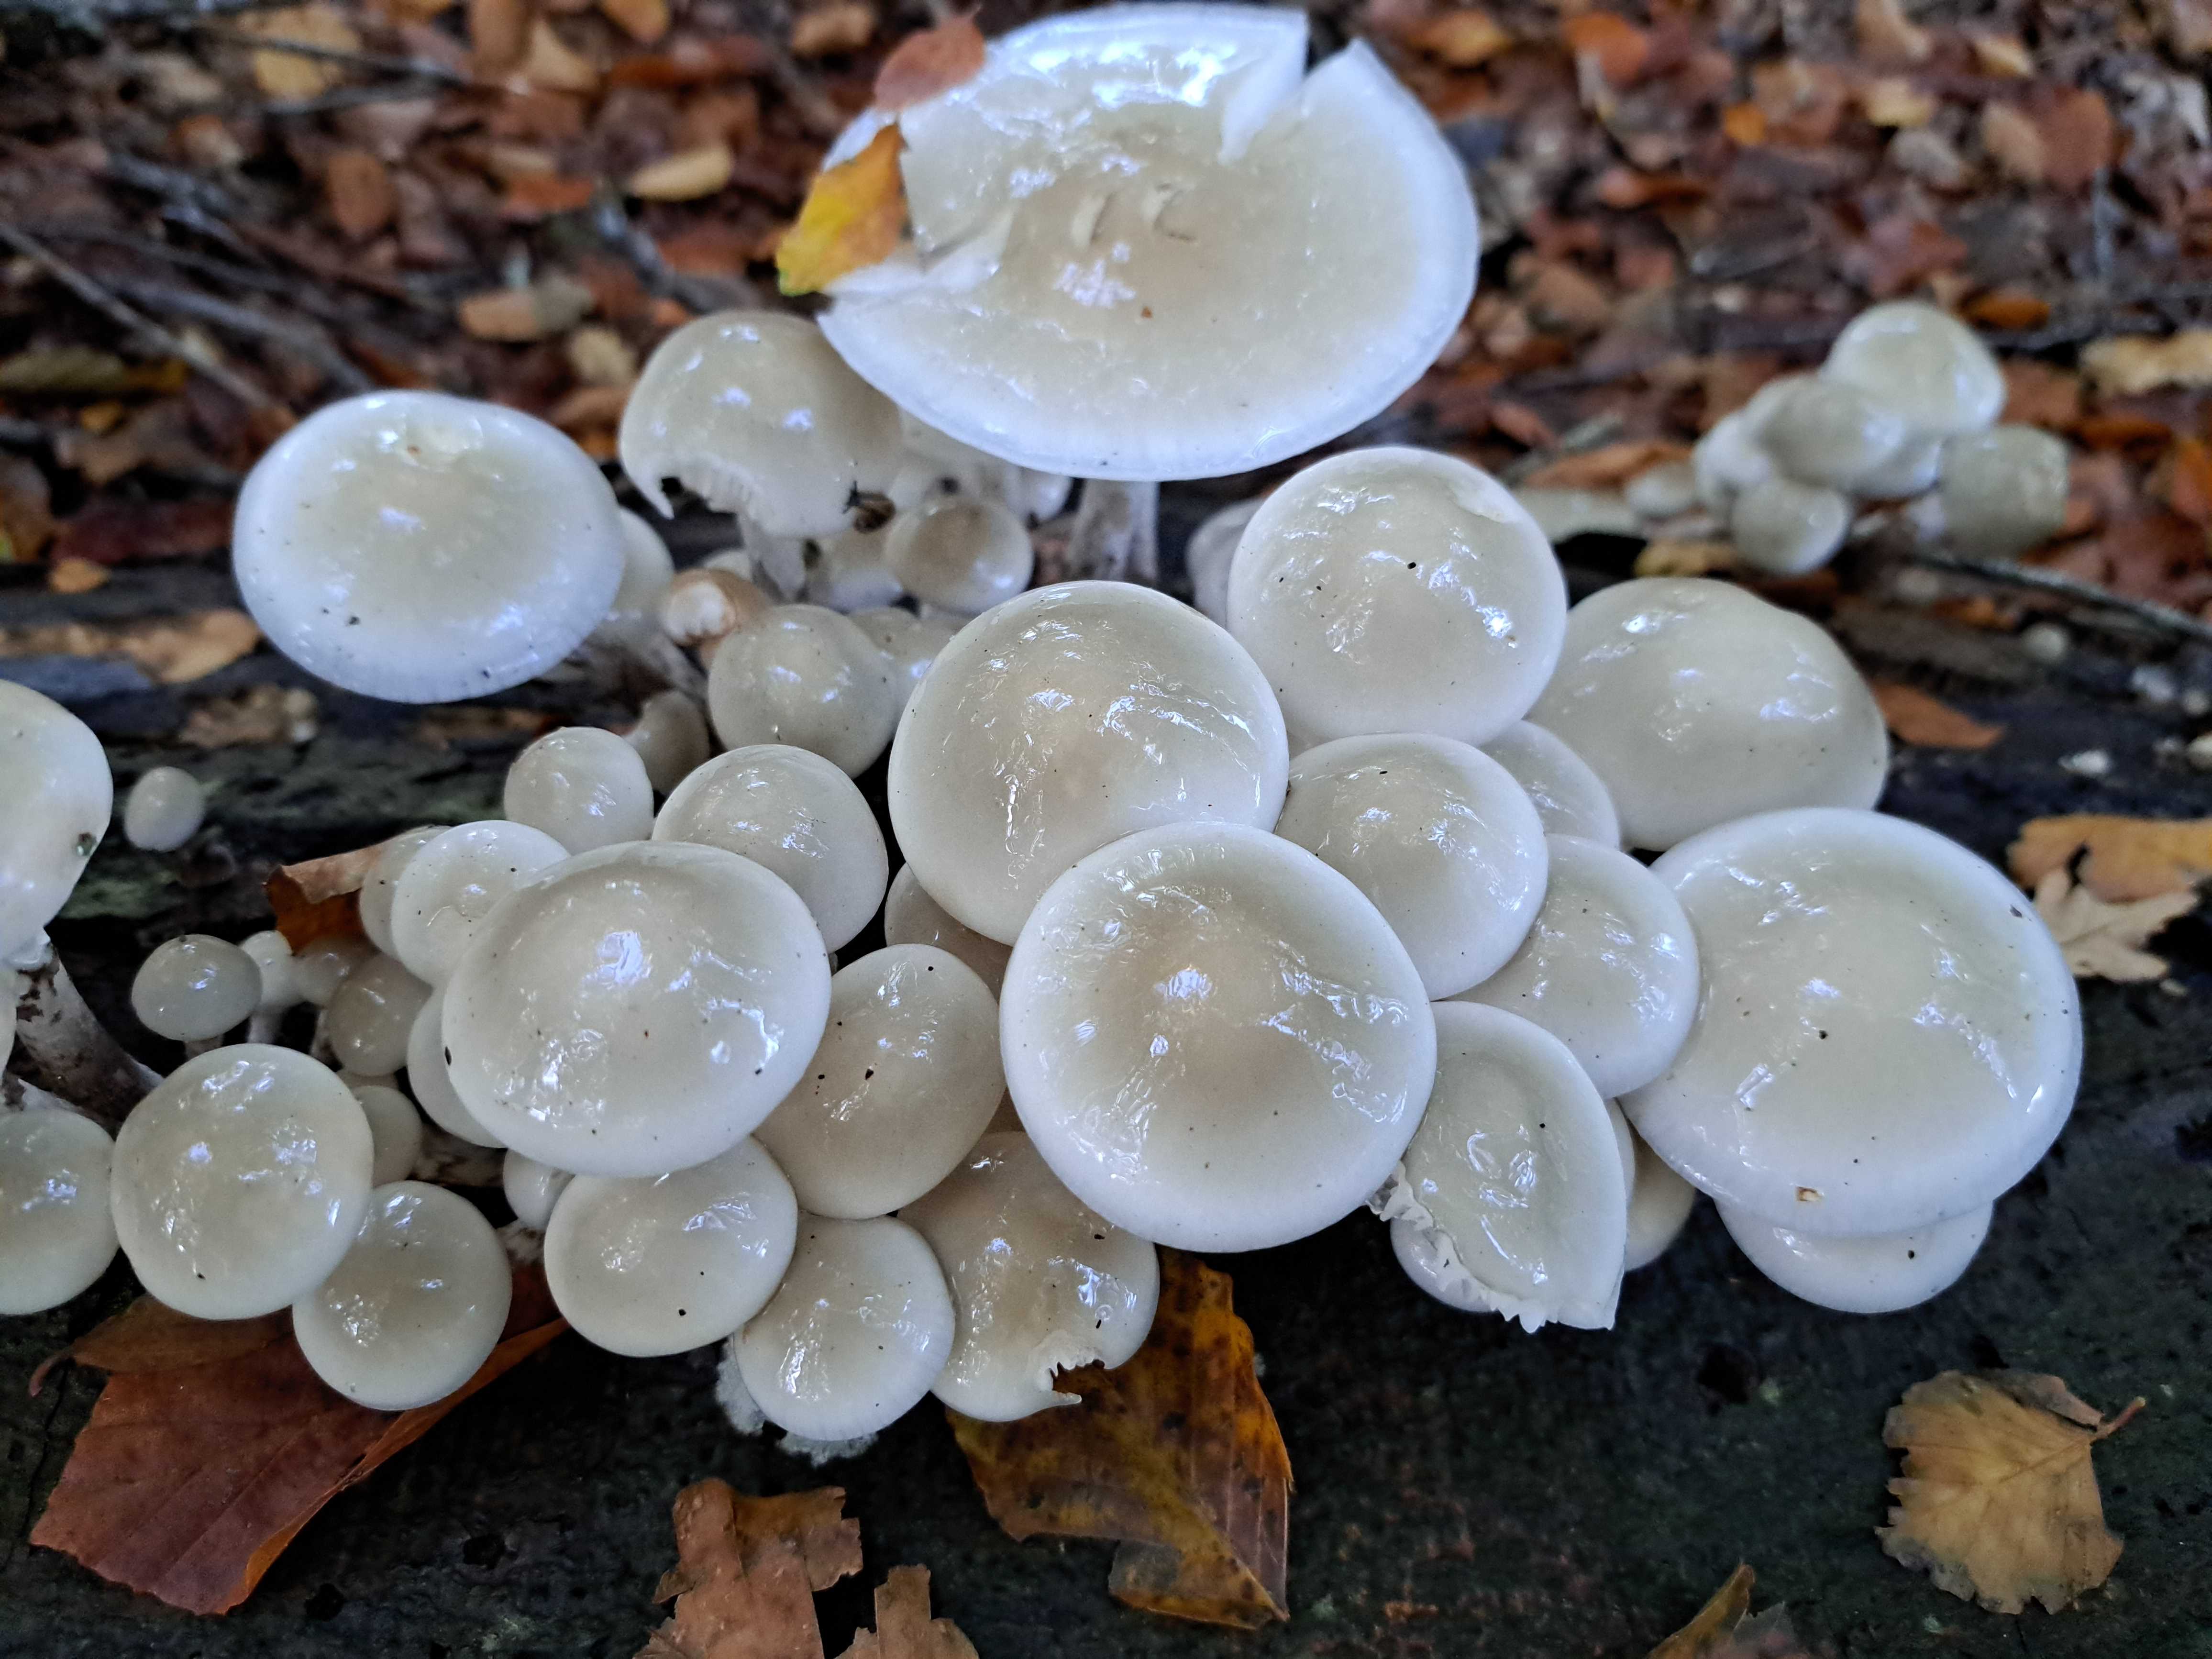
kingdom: Fungi
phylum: Basidiomycota
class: Agaricomycetes
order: Agaricales
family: Physalacriaceae
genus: Mucidula
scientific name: Mucidula mucida
